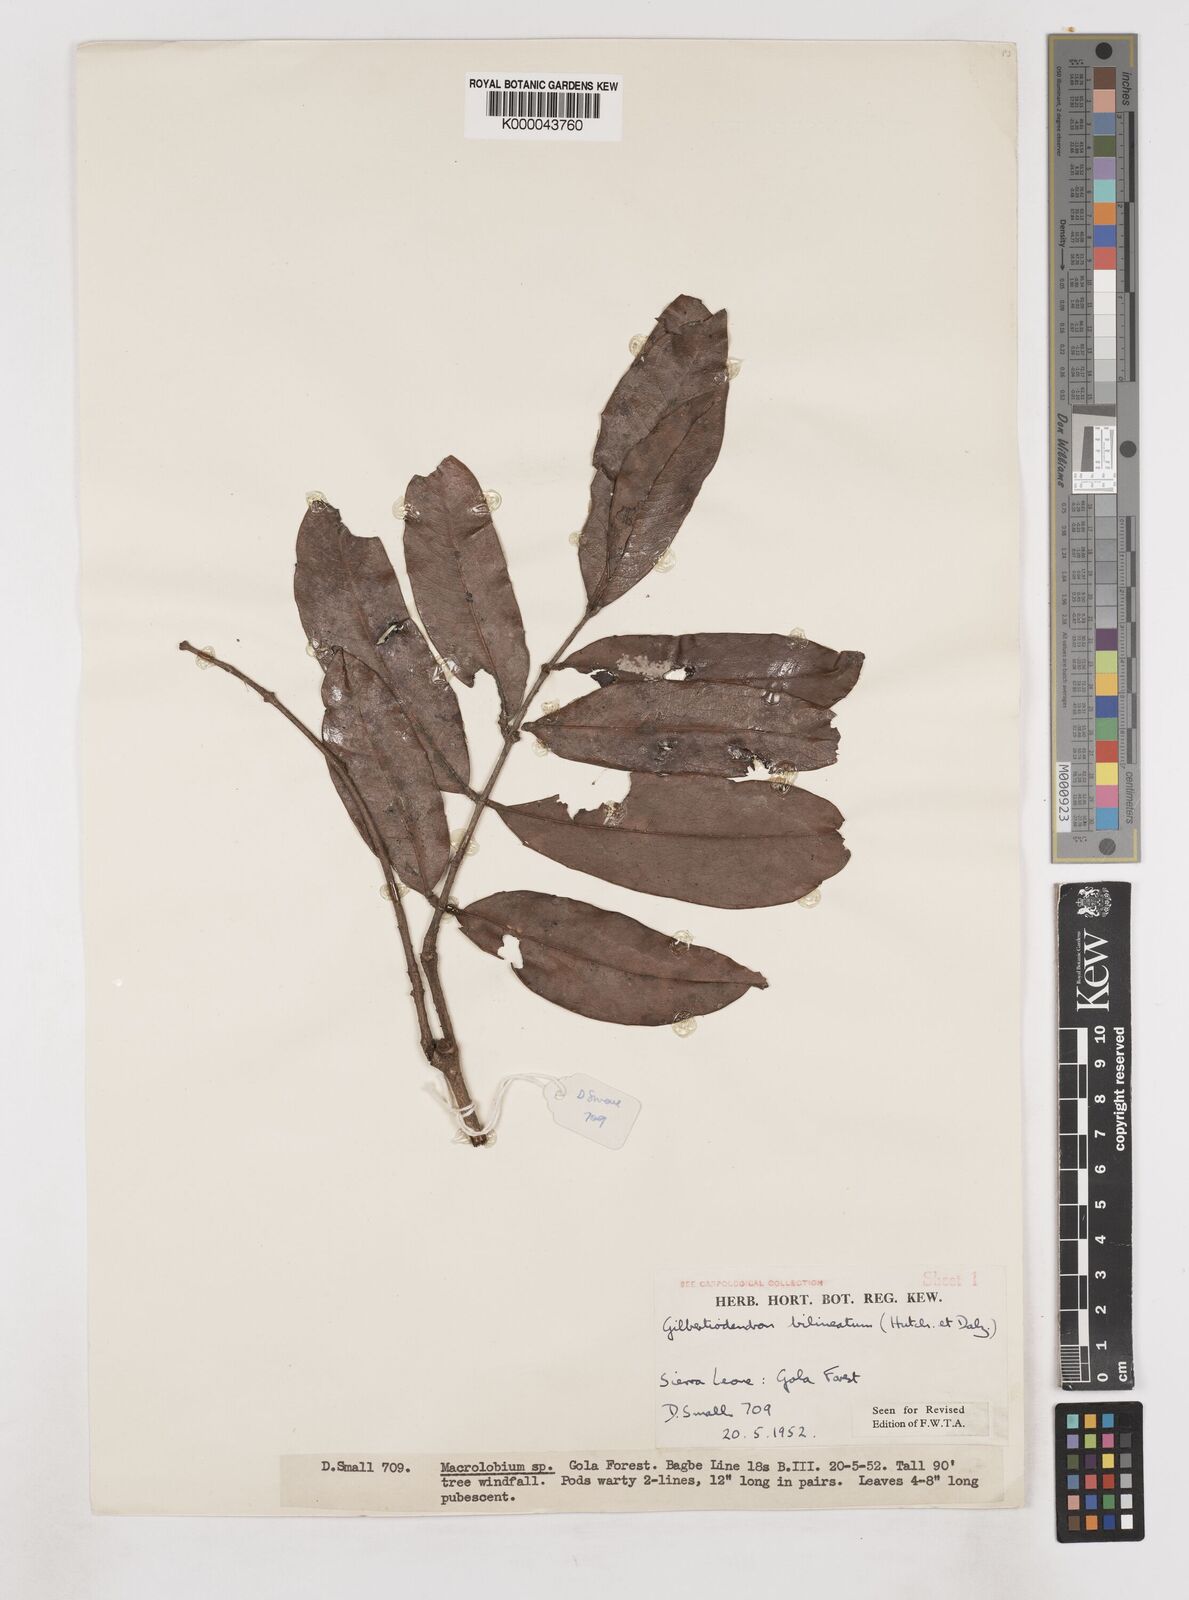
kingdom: Plantae
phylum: Tracheophyta
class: Magnoliopsida
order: Fabales
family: Fabaceae
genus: Gilbertiodendron
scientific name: Gilbertiodendron
